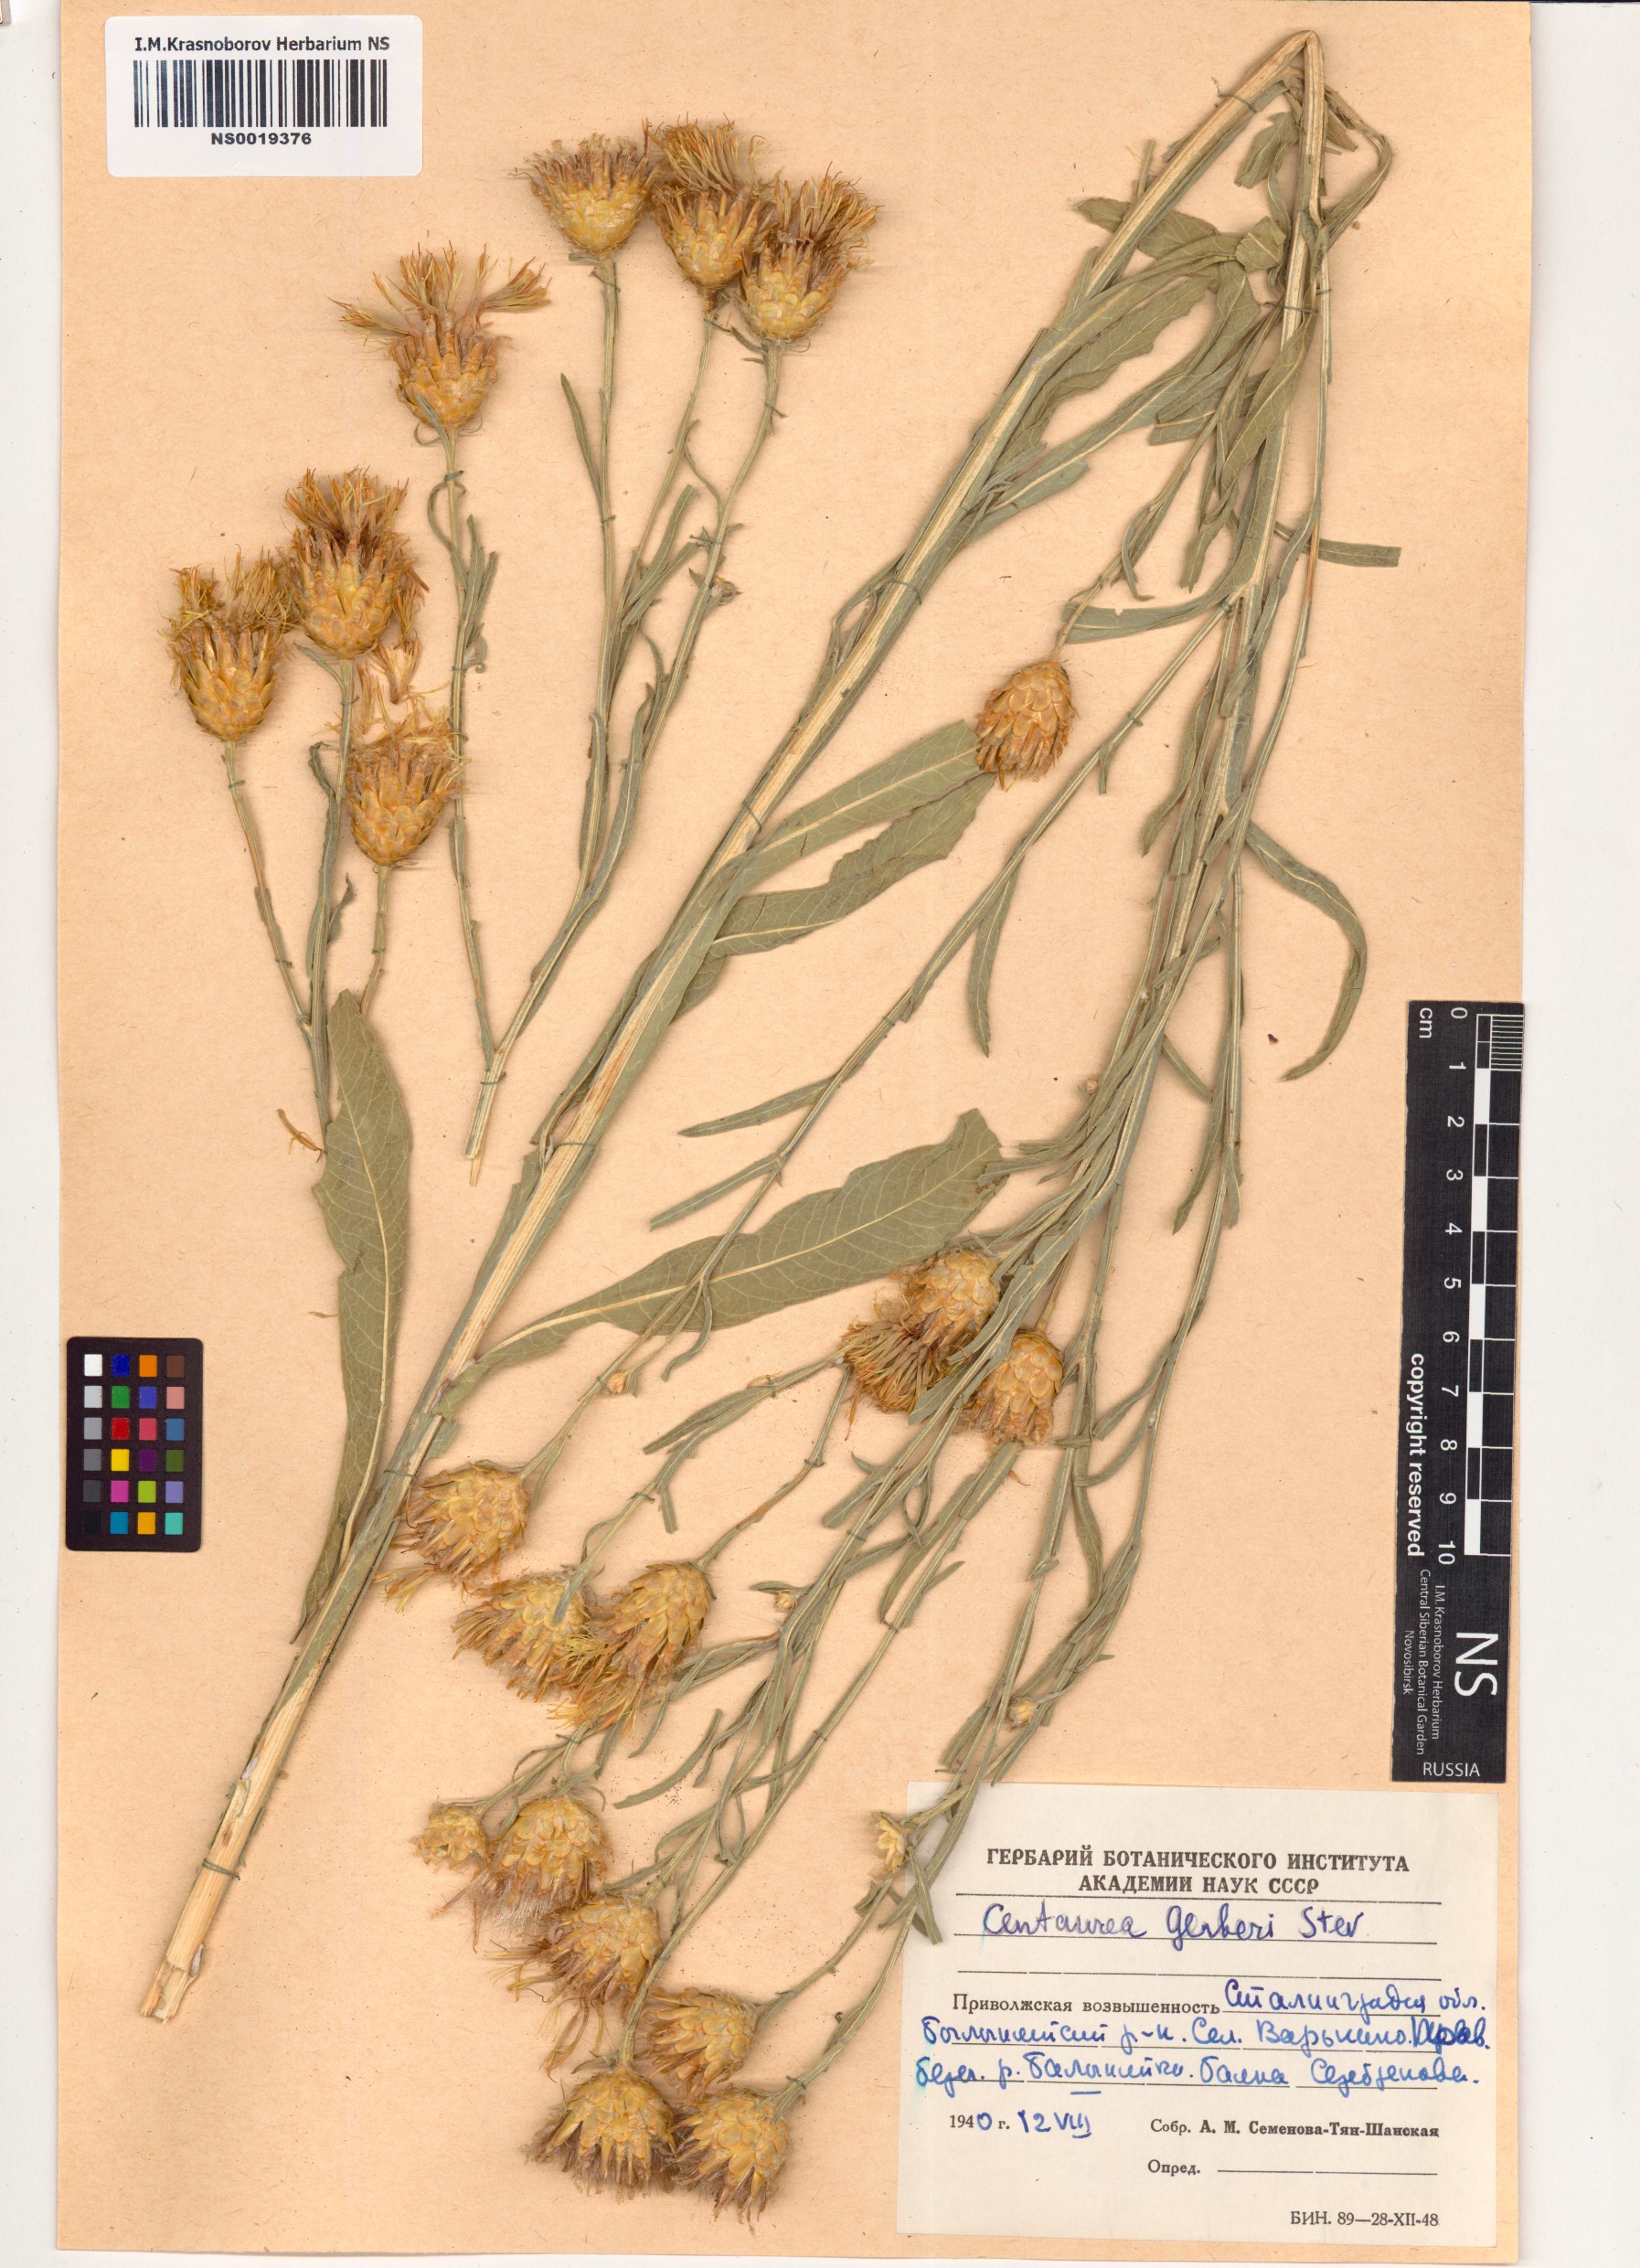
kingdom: Plantae
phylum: Tracheophyta
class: Magnoliopsida
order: Asterales
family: Asteraceae
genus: Centaurea
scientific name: Centaurea gerberi
